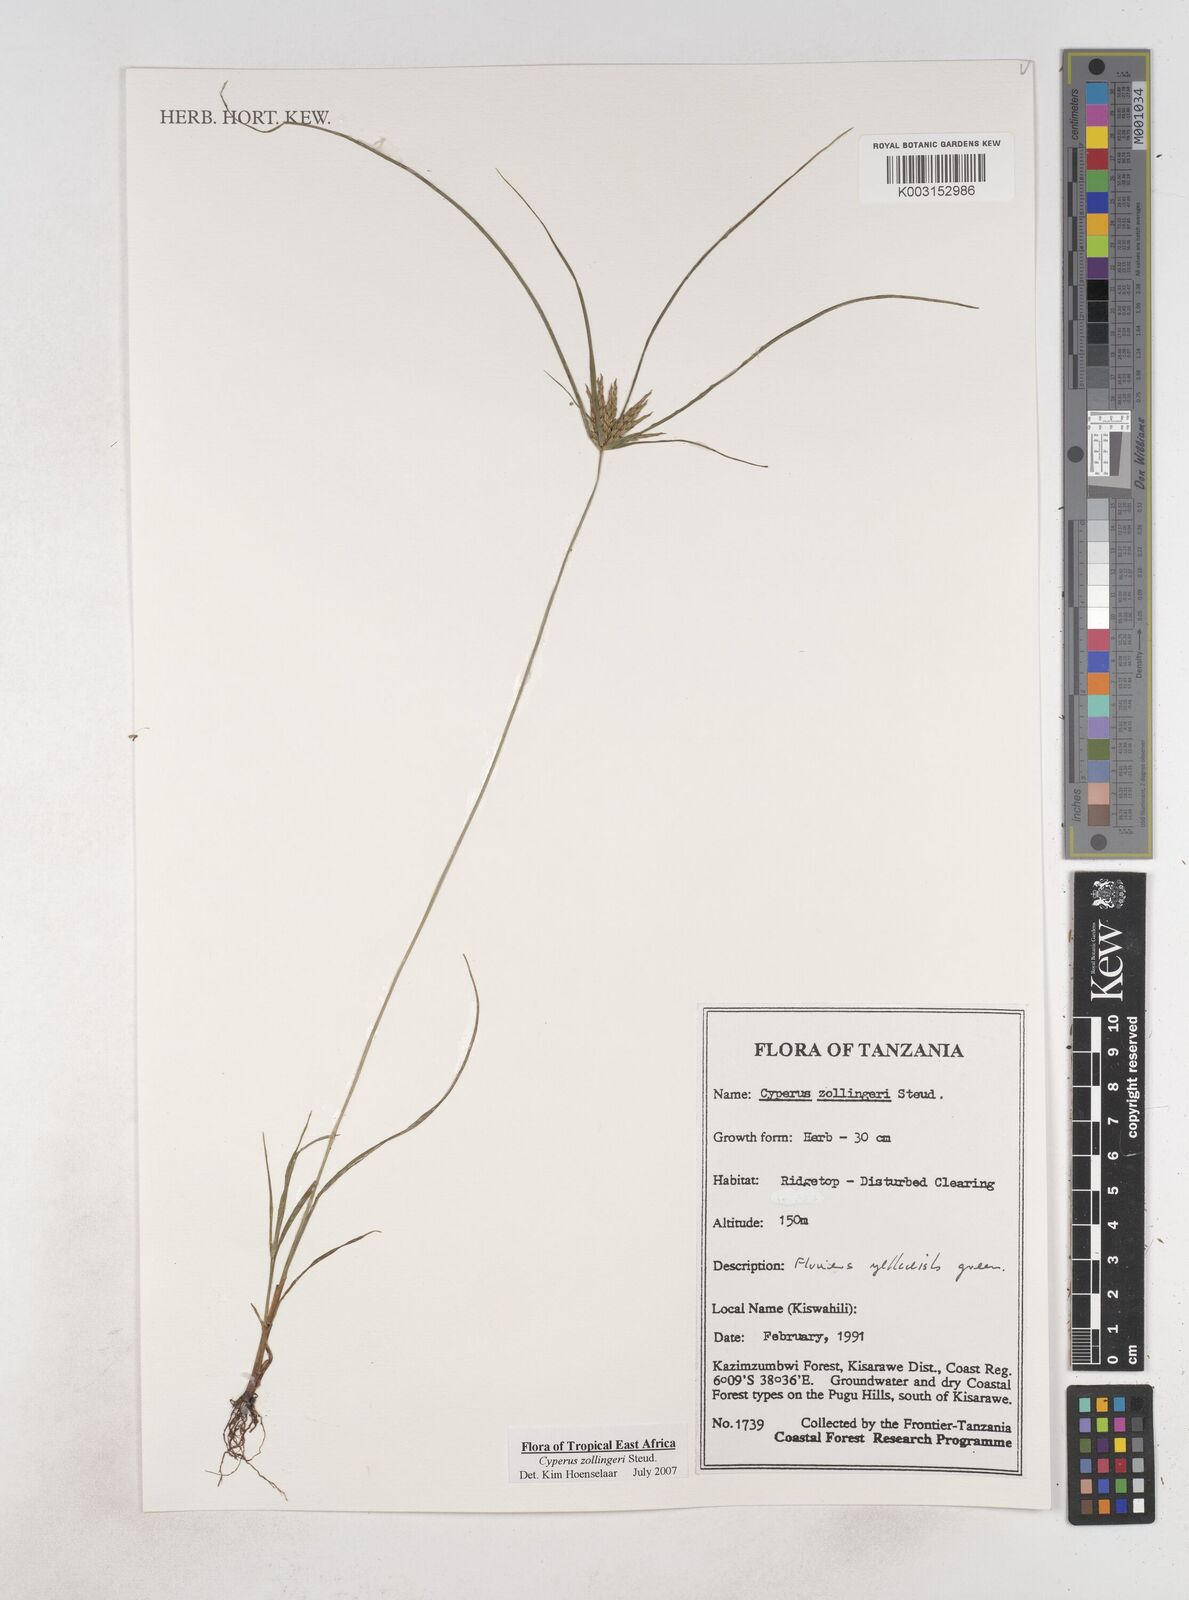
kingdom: Plantae
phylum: Tracheophyta
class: Liliopsida
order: Poales
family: Cyperaceae
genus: Cyperus
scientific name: Cyperus zollingeri
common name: Roadside flatsedge
